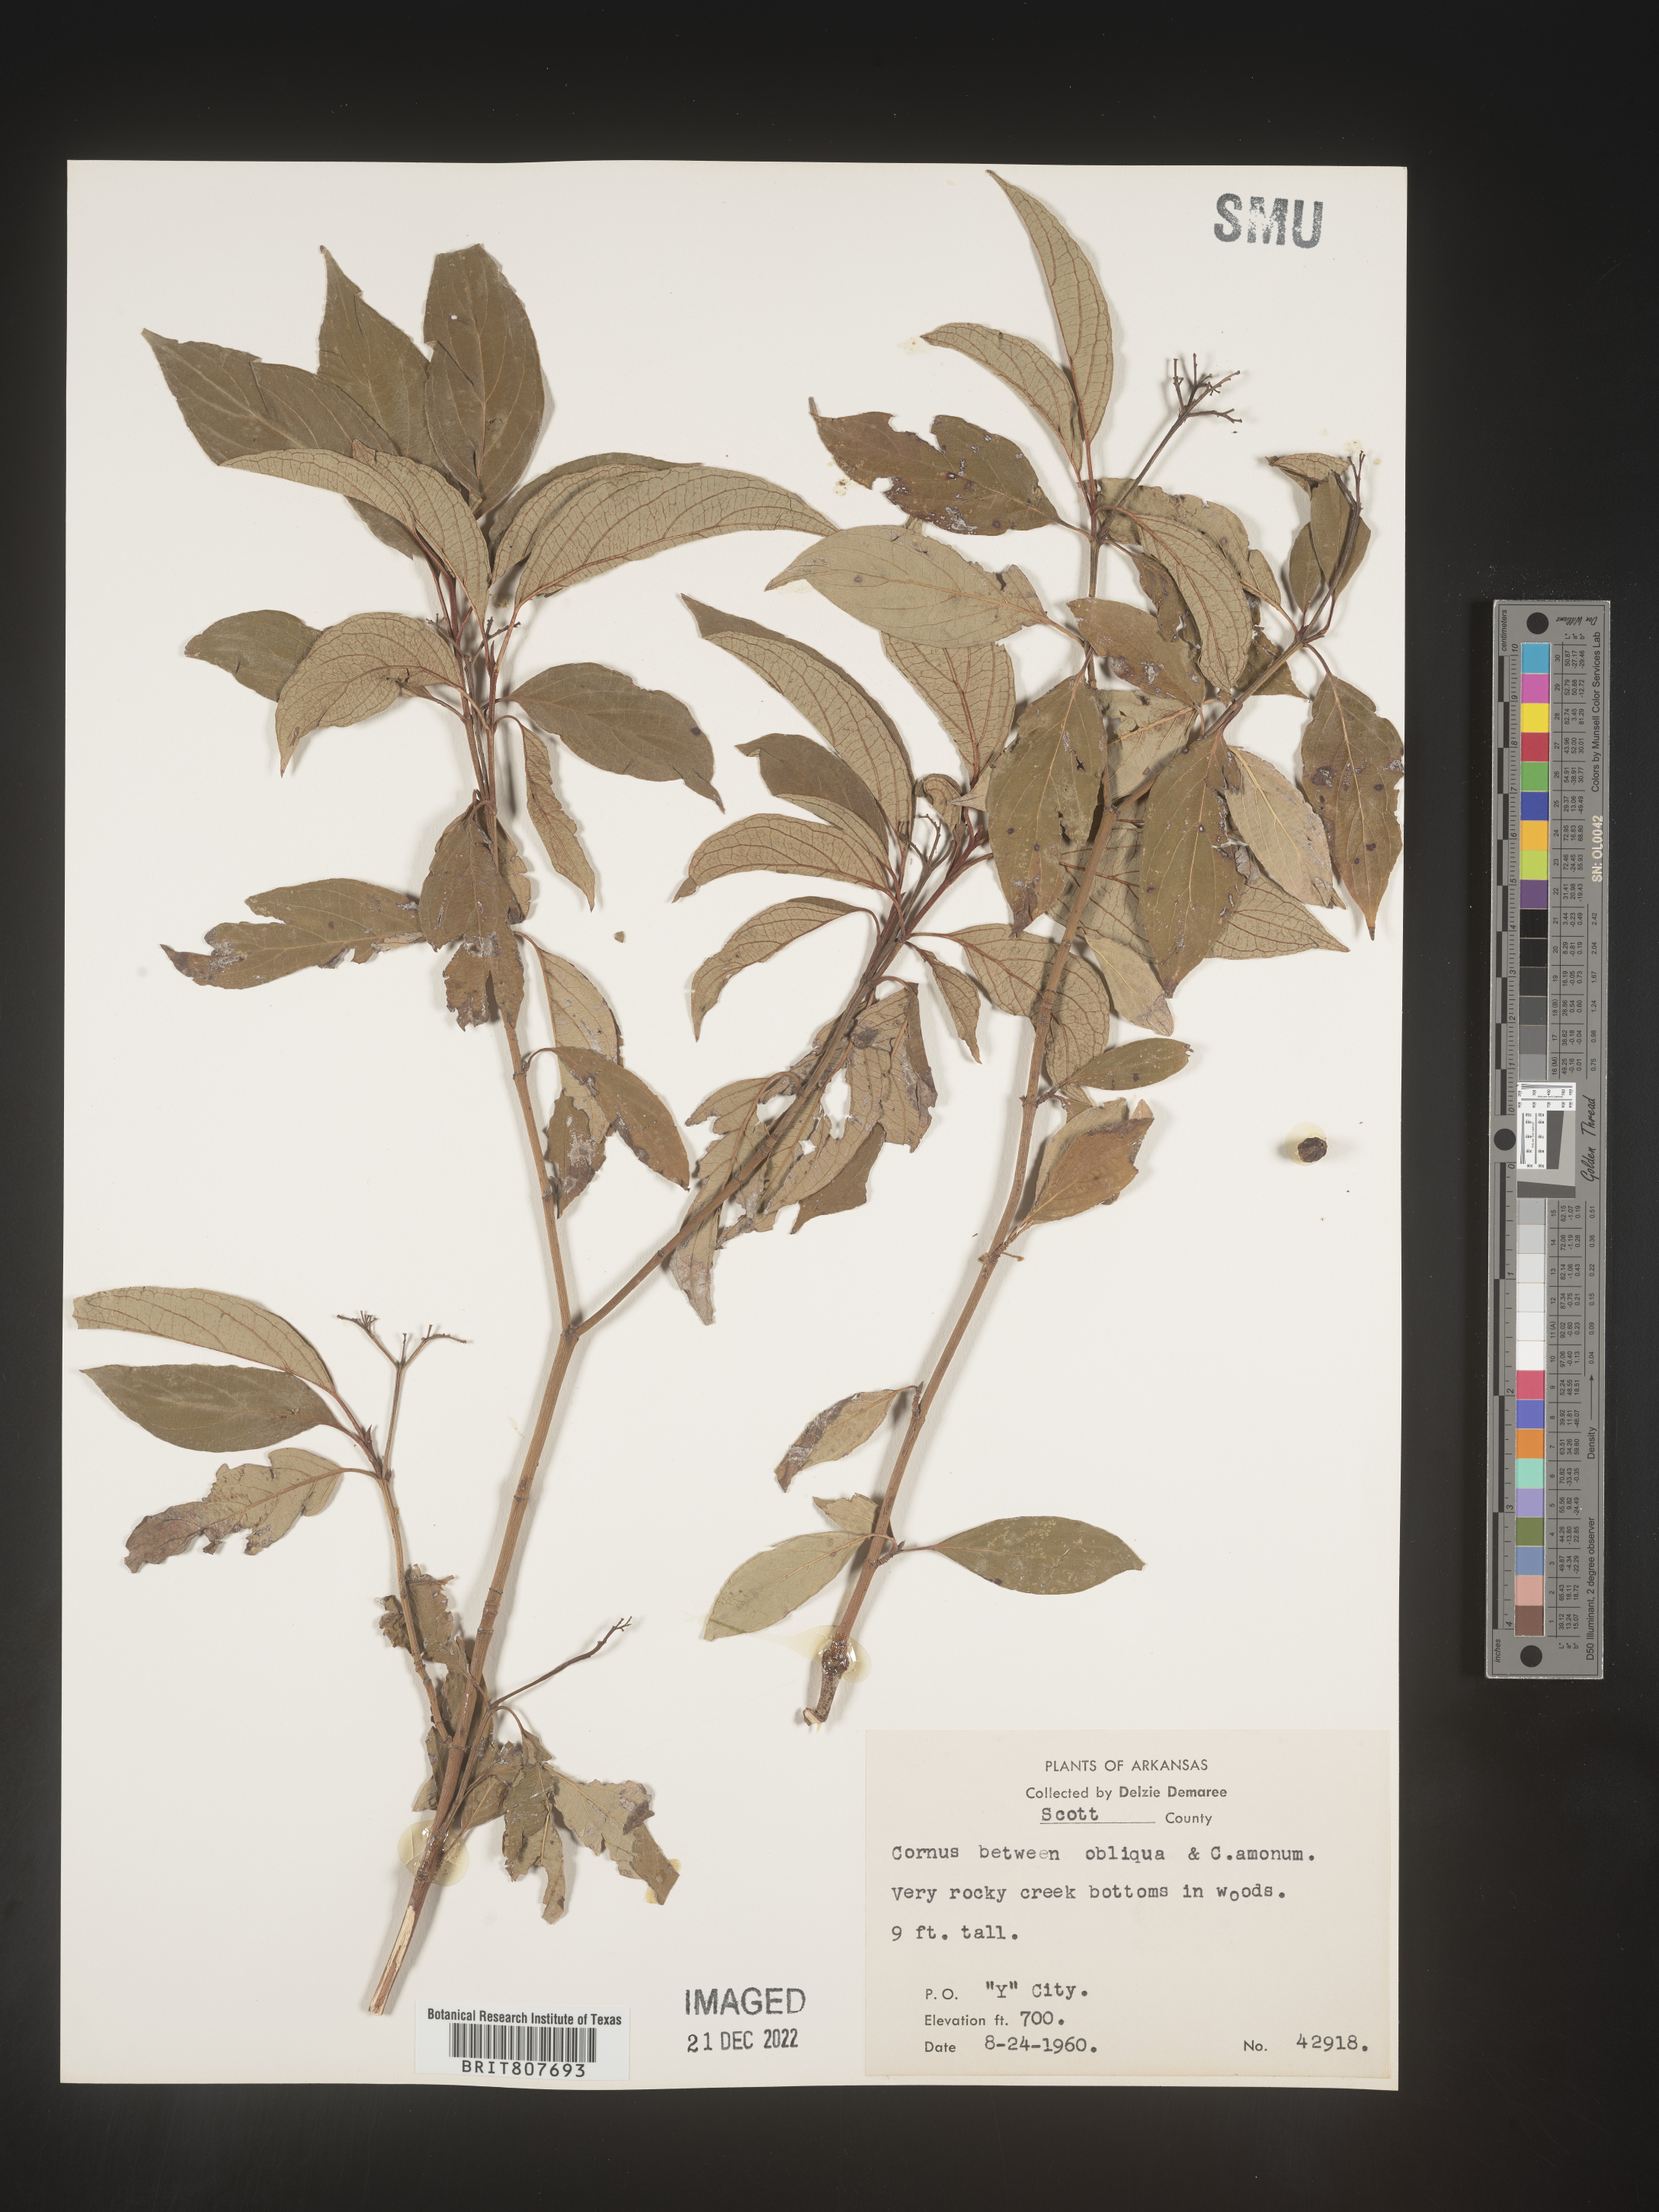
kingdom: Plantae
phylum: Tracheophyta
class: Magnoliopsida
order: Cornales
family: Cornaceae
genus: Cornus
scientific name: Cornus obliqua
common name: Pale dogwood
